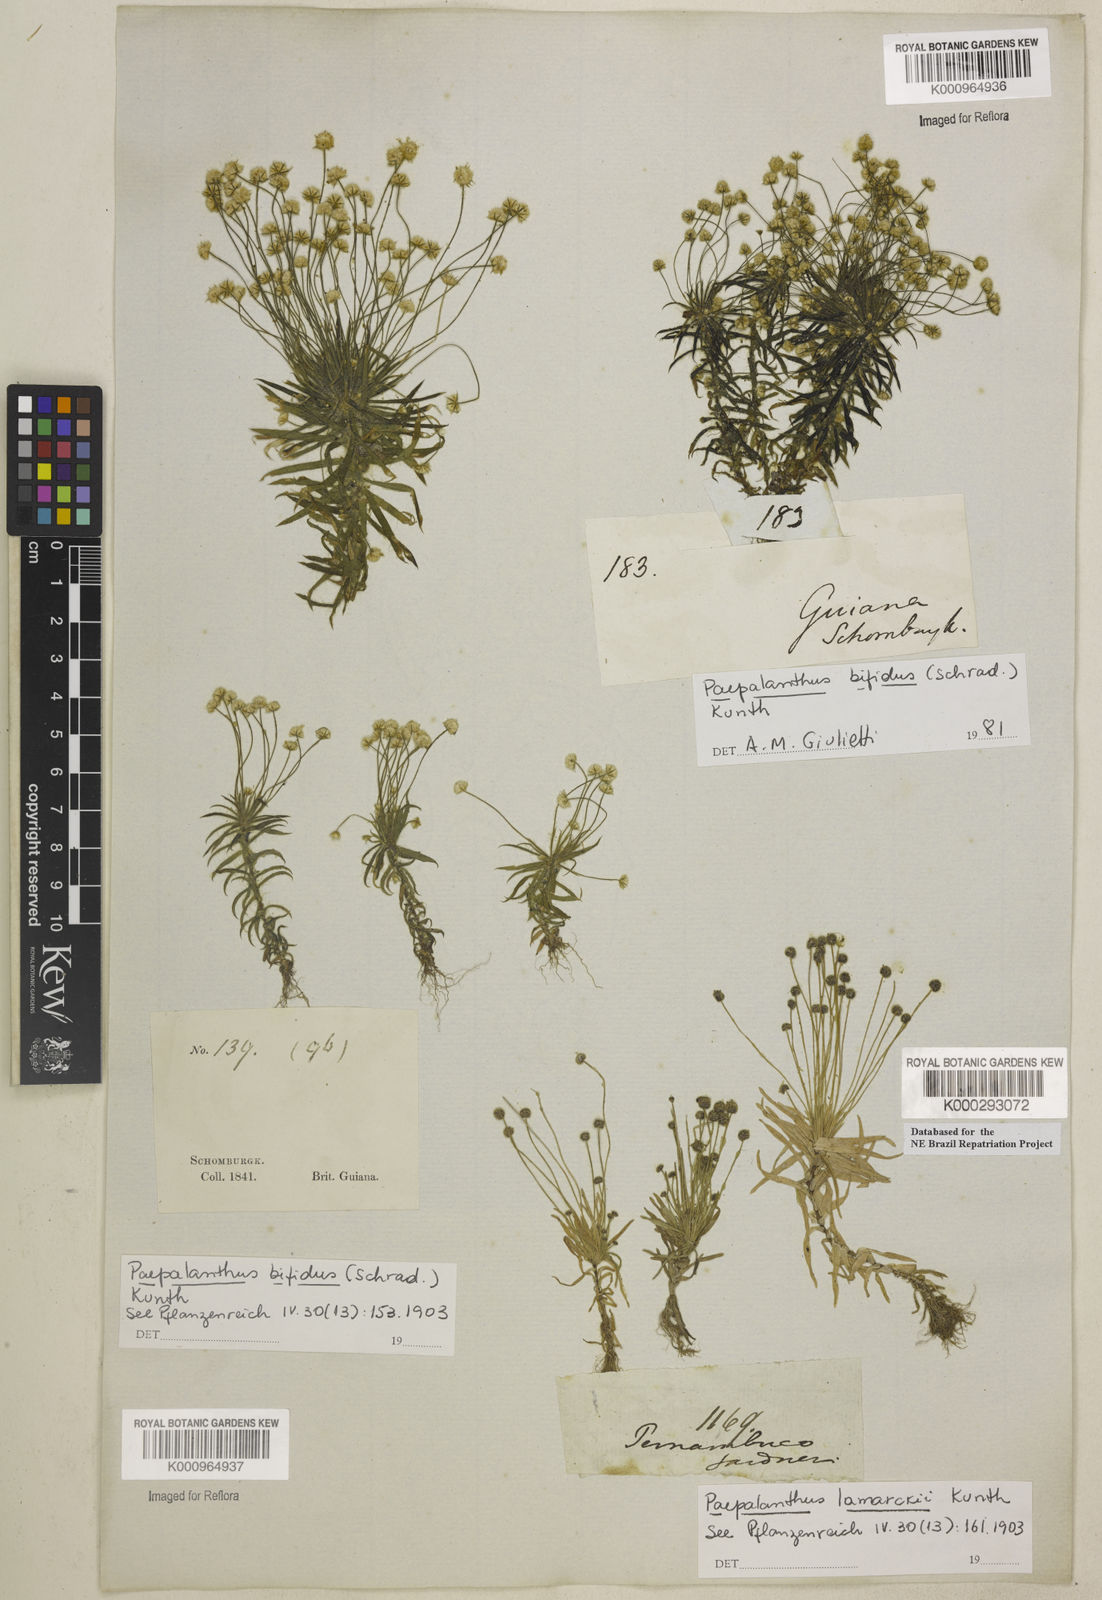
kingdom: Plantae
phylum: Tracheophyta
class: Liliopsida
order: Poales
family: Eriocaulaceae
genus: Paepalanthus
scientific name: Paepalanthus lamarckii
